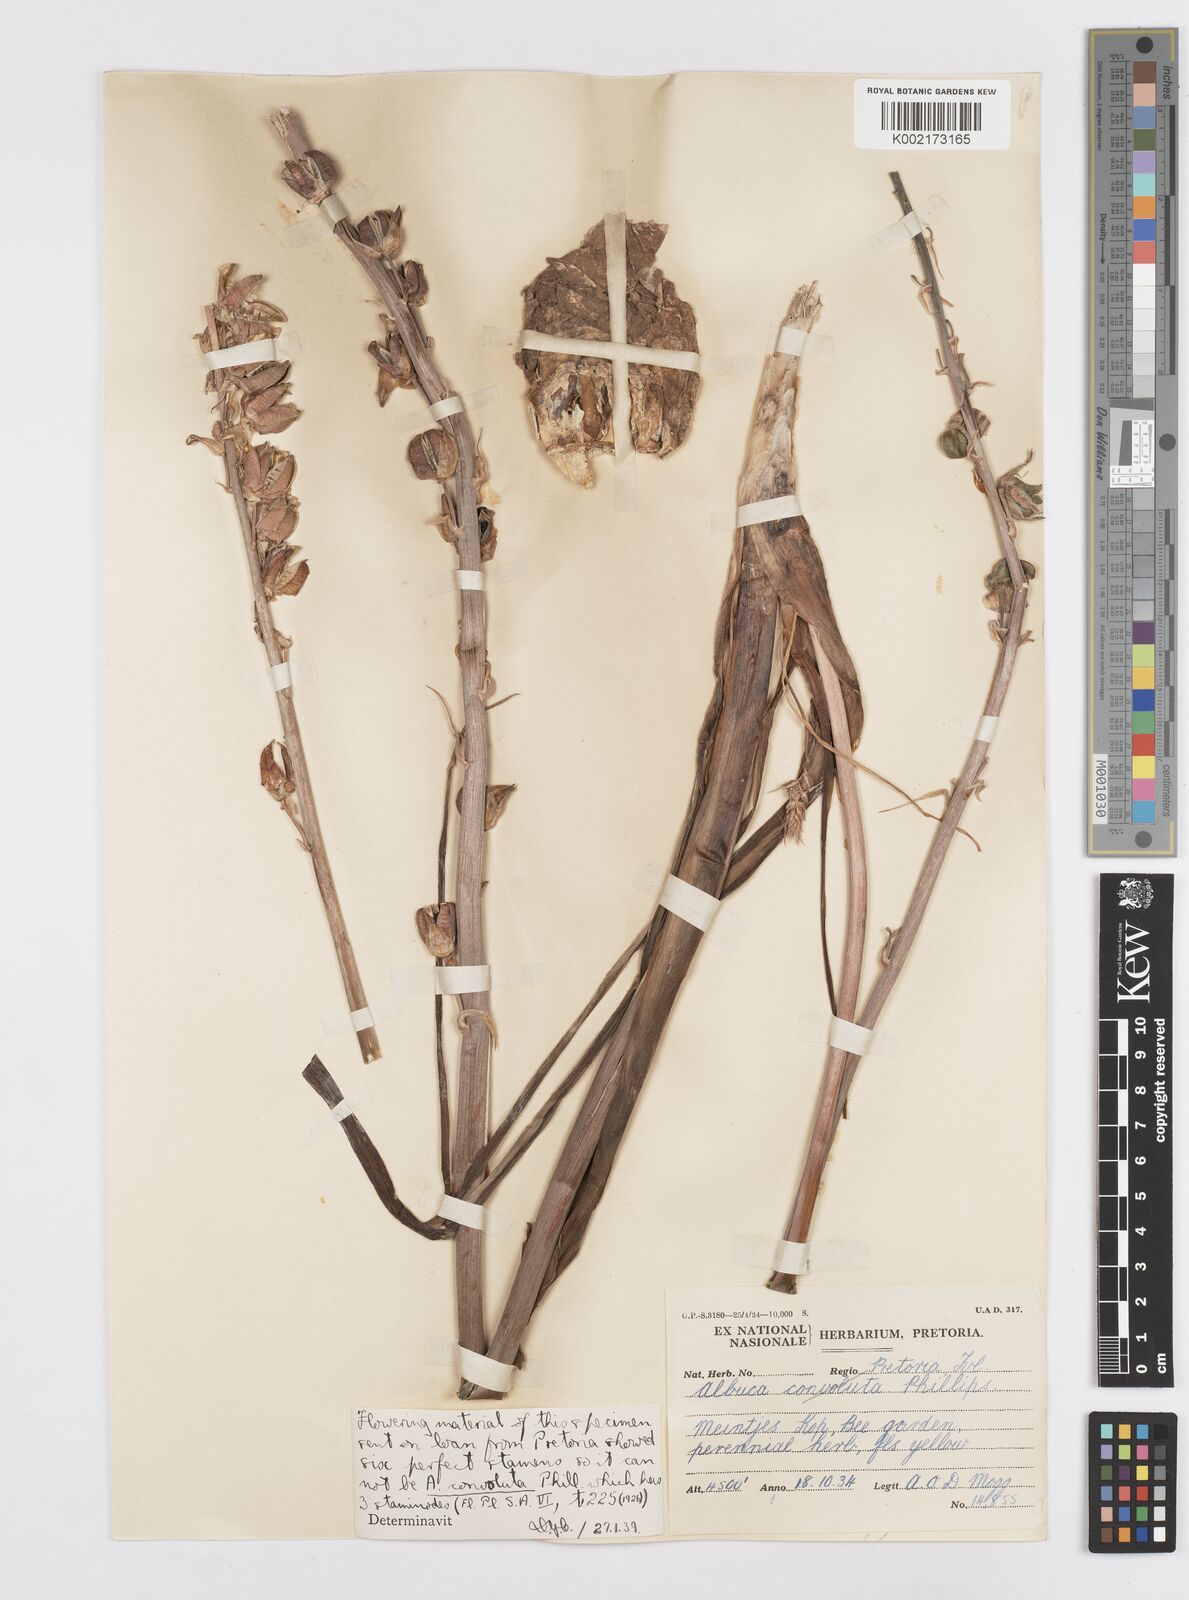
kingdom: Plantae
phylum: Tracheophyta
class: Liliopsida
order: Asparagales
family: Asparagaceae
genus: Albuca
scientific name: Albuca
